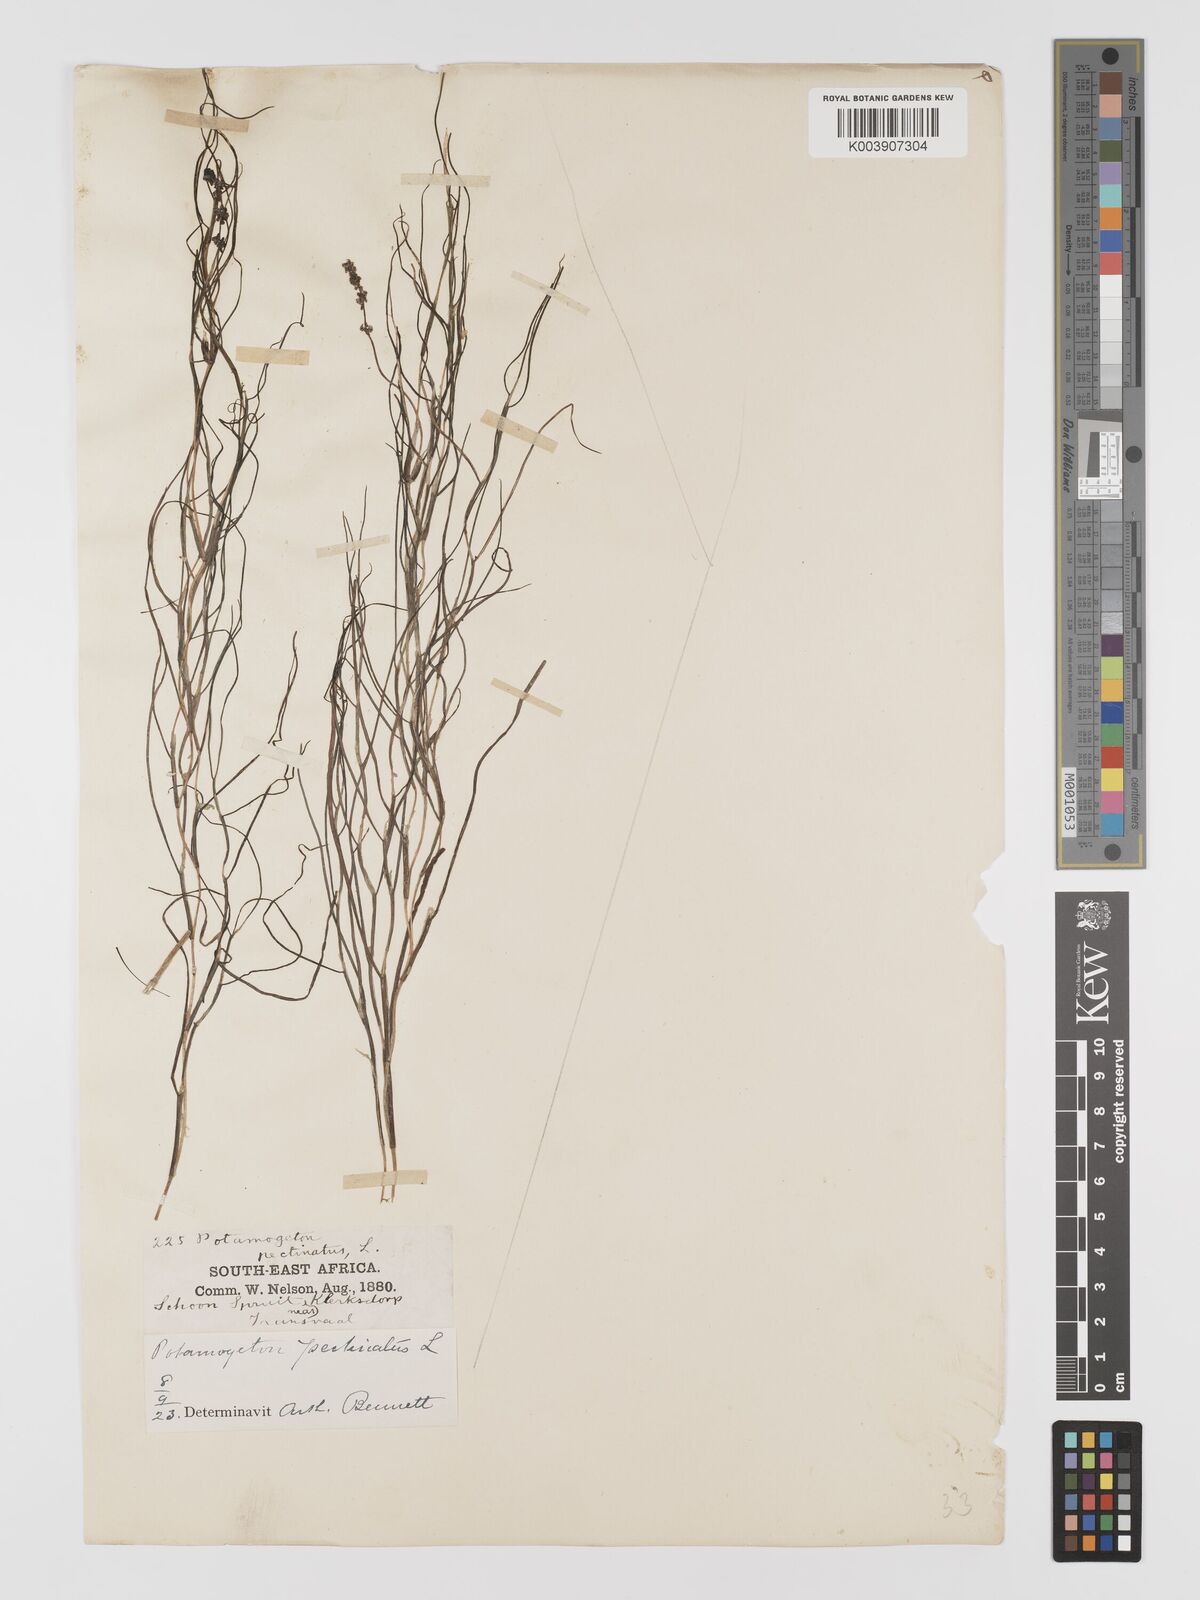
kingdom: Plantae
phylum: Tracheophyta
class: Liliopsida
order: Alismatales
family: Potamogetonaceae
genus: Stuckenia
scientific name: Stuckenia pectinata
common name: Sago pondweed
